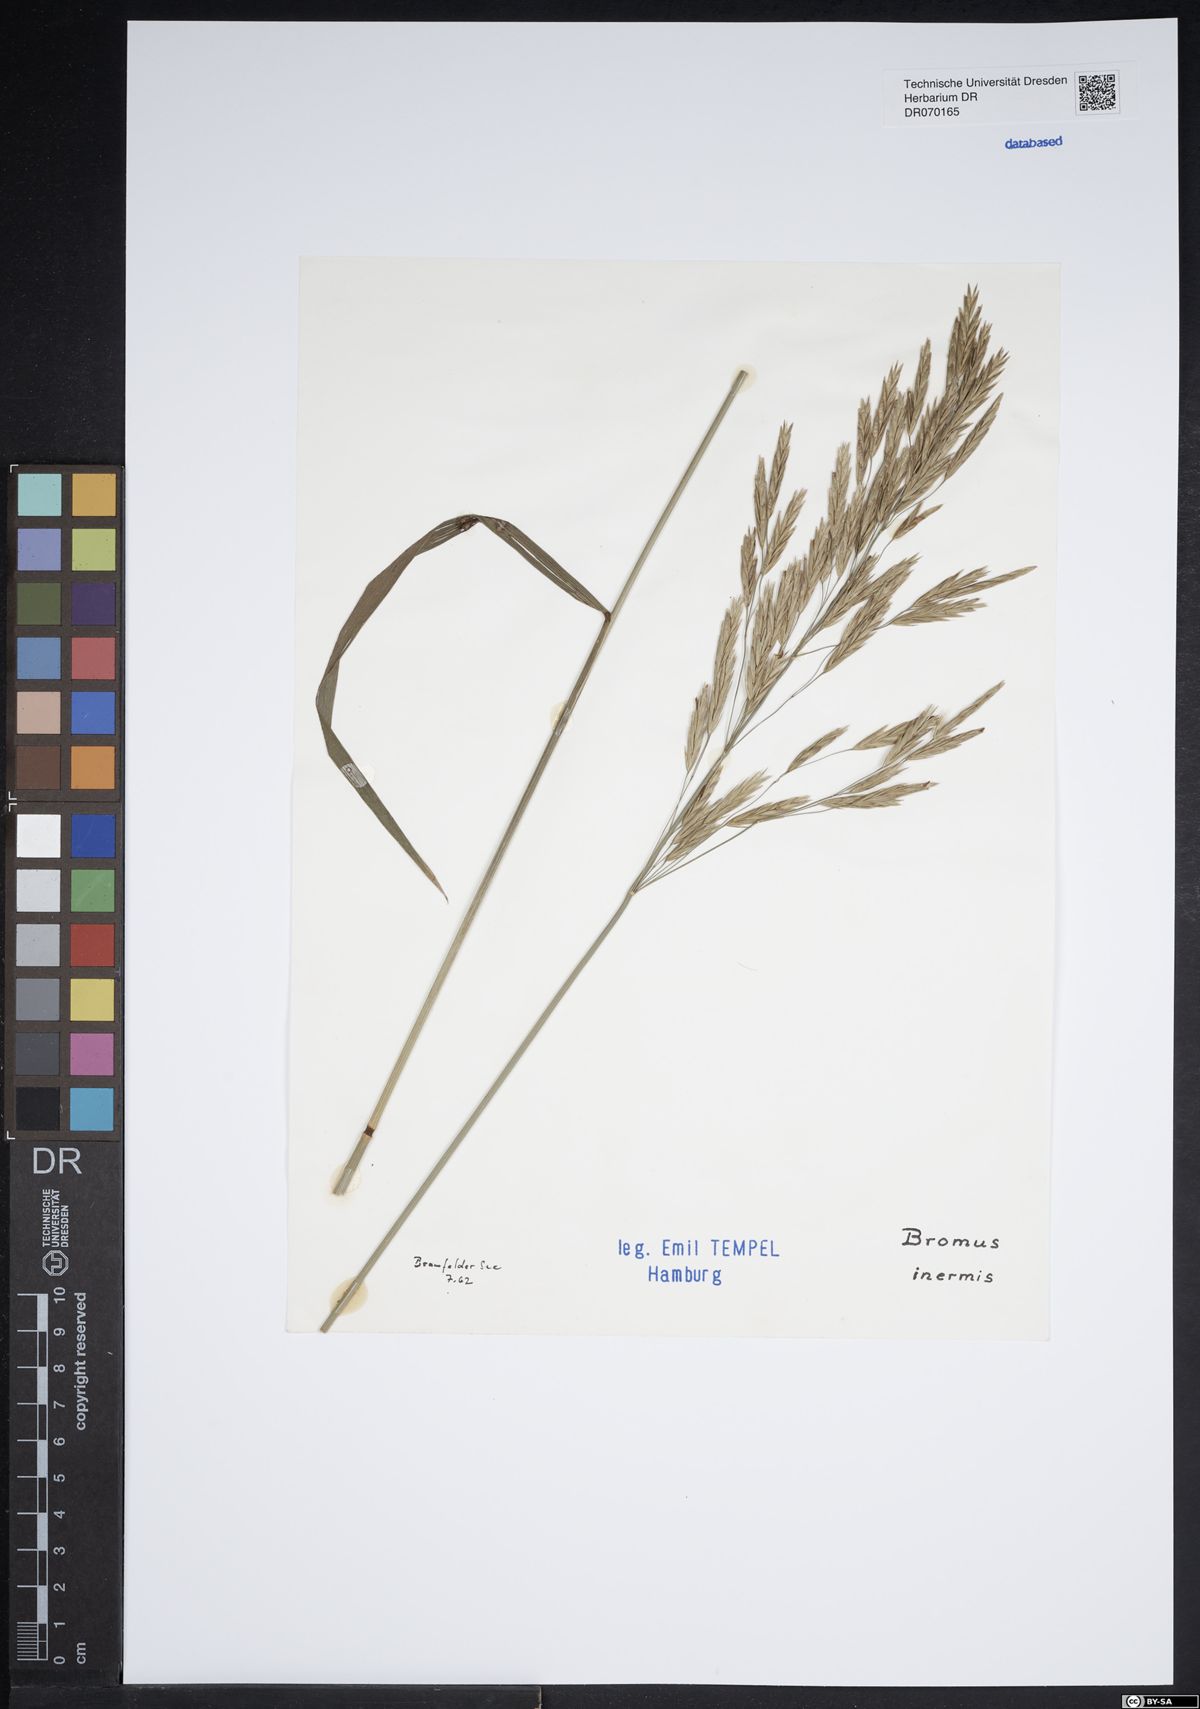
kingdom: Plantae
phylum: Tracheophyta
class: Liliopsida
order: Poales
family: Bromeliaceae
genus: Ananas
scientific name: Ananas comosus
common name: Pineapple
